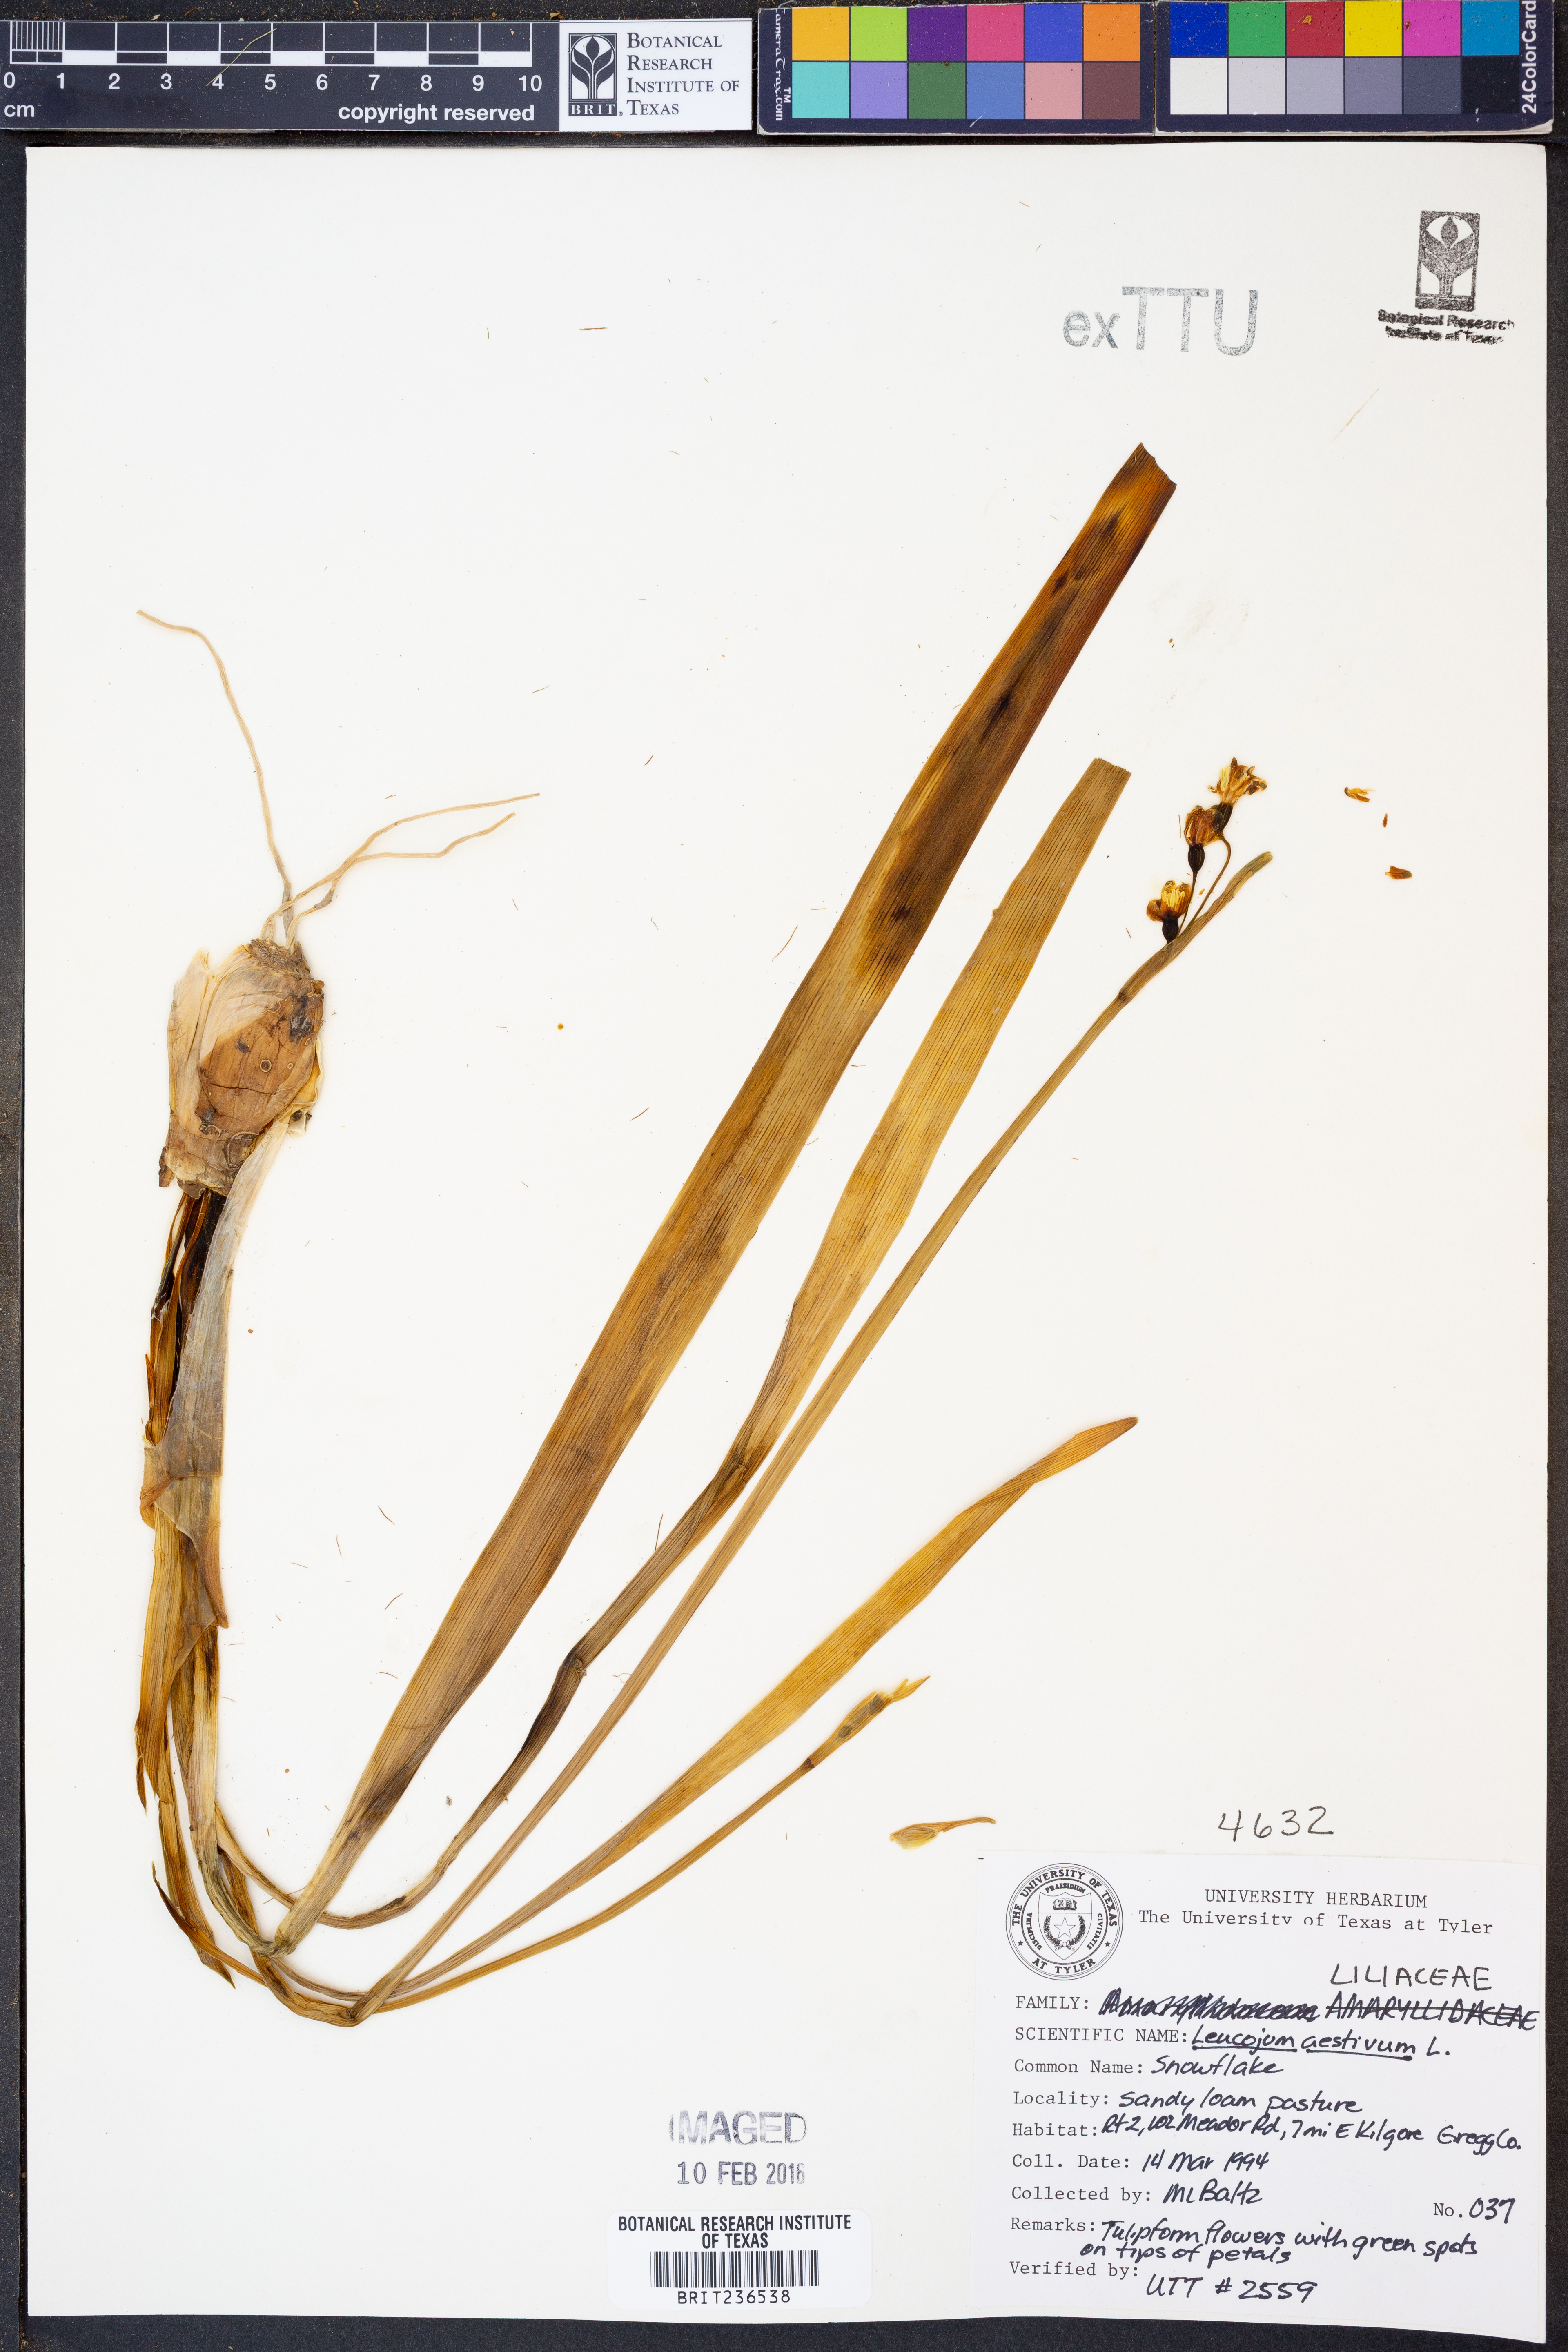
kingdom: Plantae
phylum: Tracheophyta
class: Liliopsida
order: Asparagales
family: Amaryllidaceae
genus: Leucojum
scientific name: Leucojum aestivum
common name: Summer snowflake
